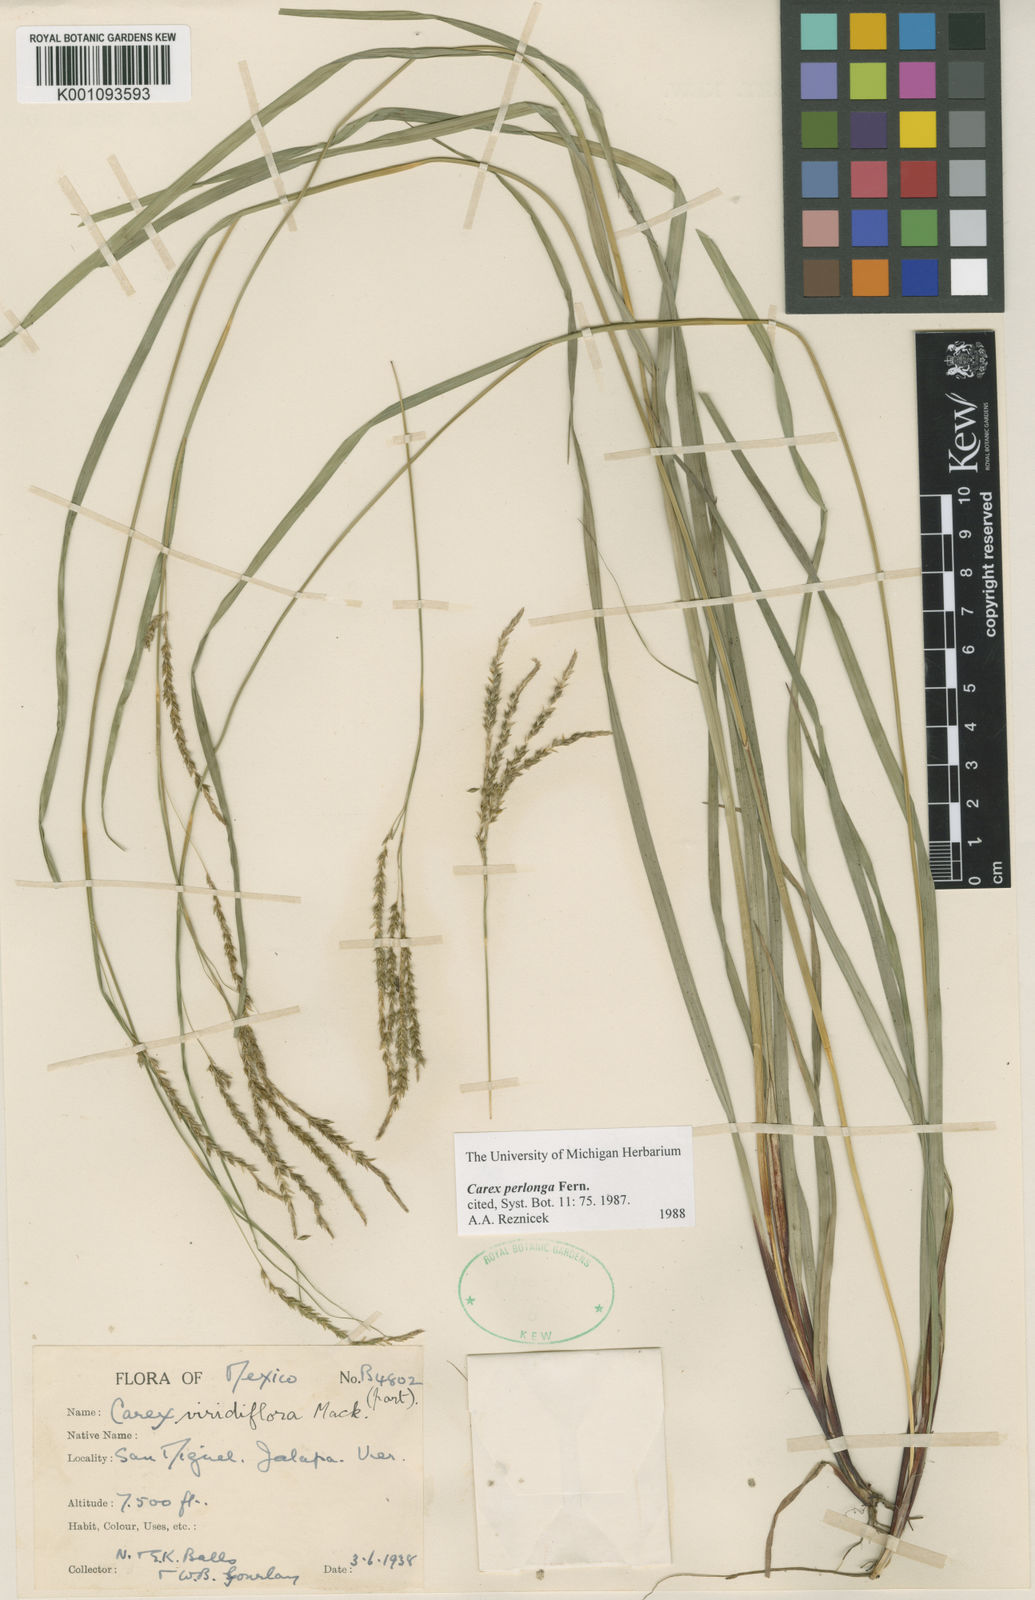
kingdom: Plantae
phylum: Tracheophyta
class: Liliopsida
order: Poales
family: Cyperaceae
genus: Carex
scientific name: Carex perlonga
